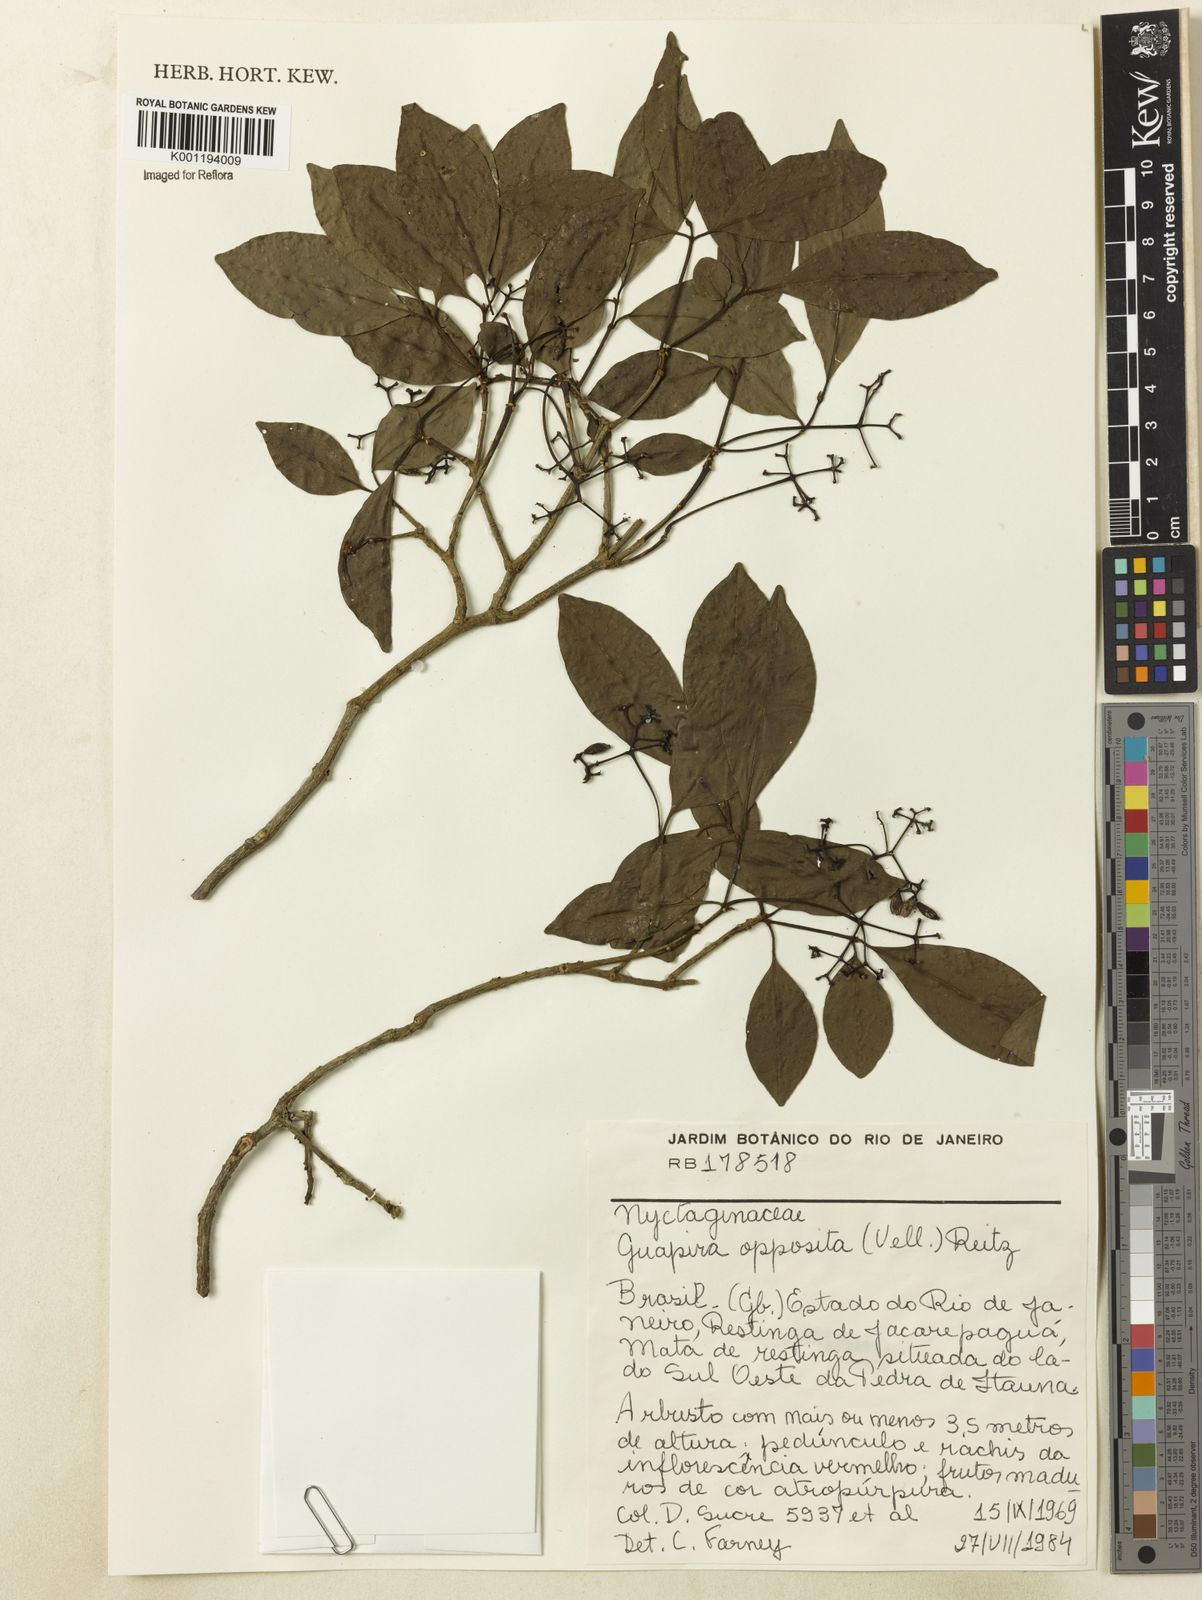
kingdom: Plantae
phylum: Tracheophyta
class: Magnoliopsida
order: Caryophyllales
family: Nyctaginaceae
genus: Guapira
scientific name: Guapira opposita
